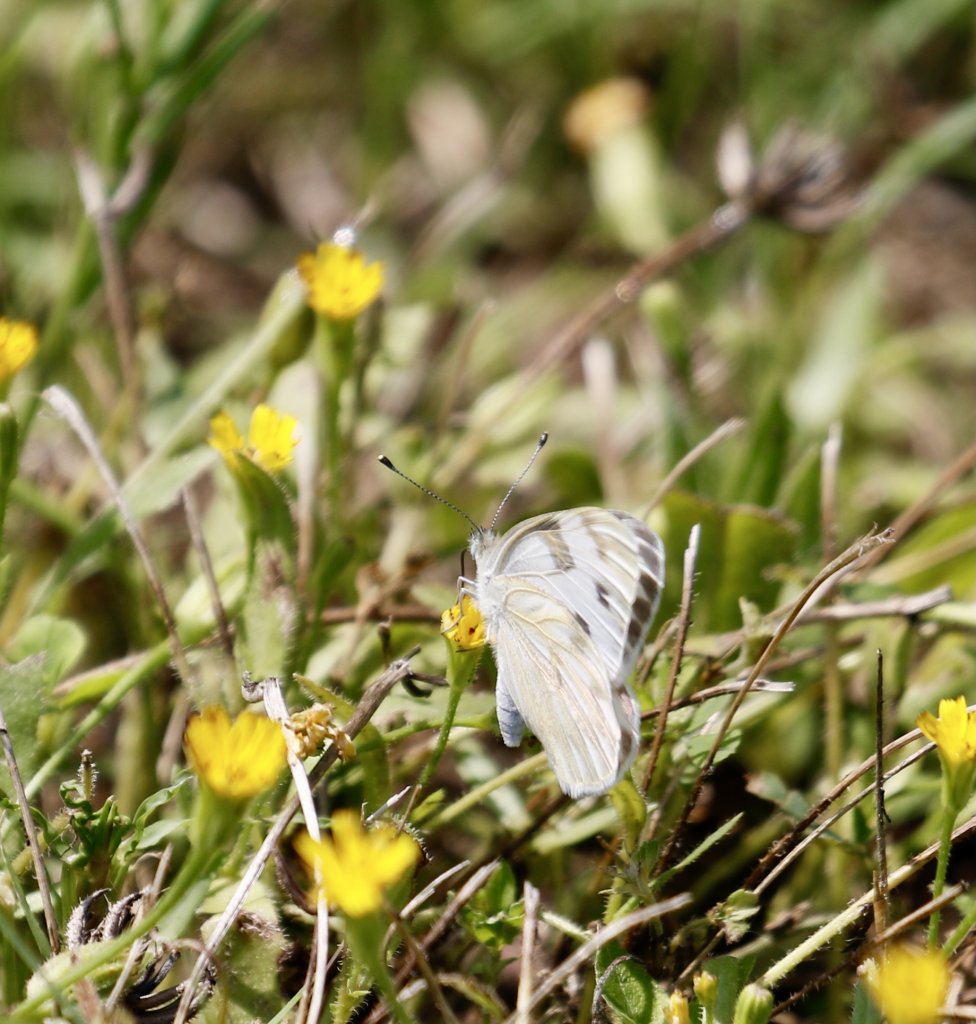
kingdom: Animalia
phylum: Arthropoda
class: Insecta
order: Lepidoptera
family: Pieridae
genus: Pontia
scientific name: Pontia protodice
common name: Checkered White
